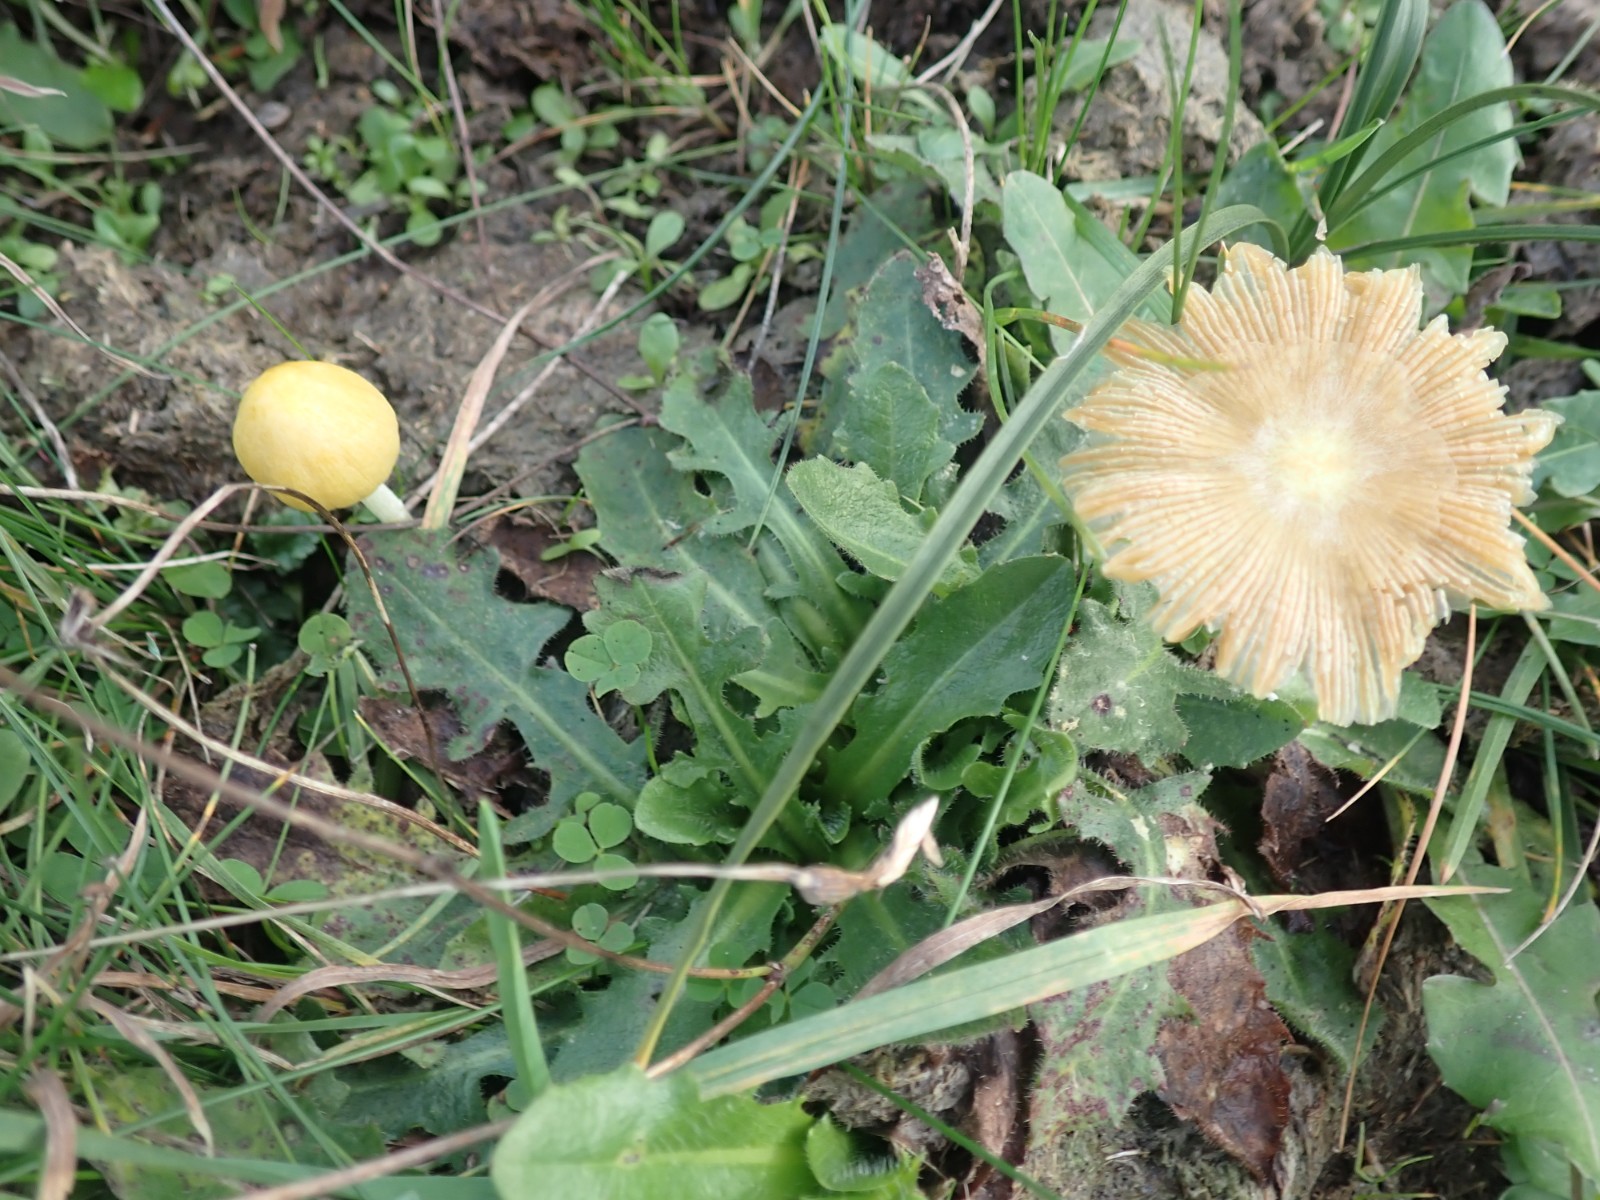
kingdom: Fungi
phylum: Basidiomycota
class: Agaricomycetes
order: Agaricales
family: Bolbitiaceae
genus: Bolbitius
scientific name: Bolbitius titubans
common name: almindelig gulhat
